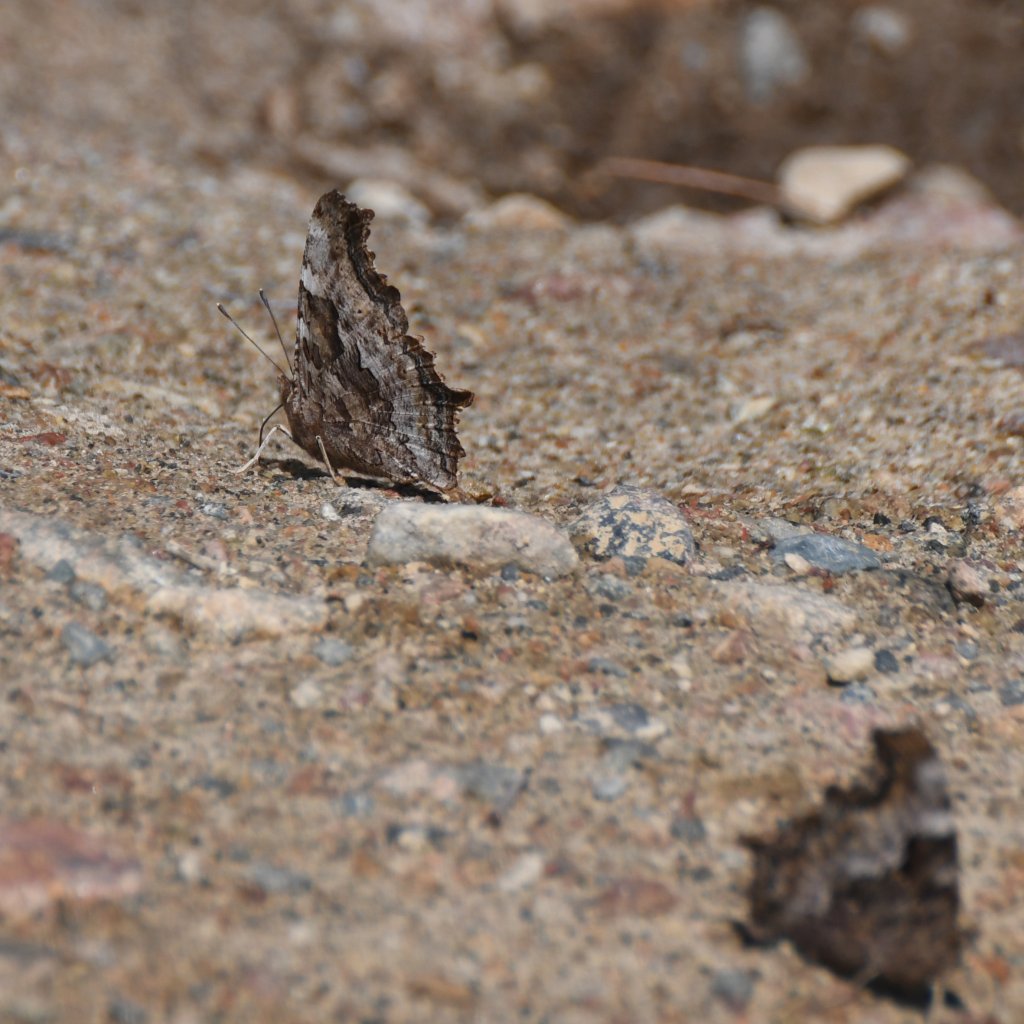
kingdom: Animalia
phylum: Arthropoda
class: Insecta
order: Lepidoptera
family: Nymphalidae
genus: Polygonia
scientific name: Polygonia vaualbum
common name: Compton Tortoiseshell
